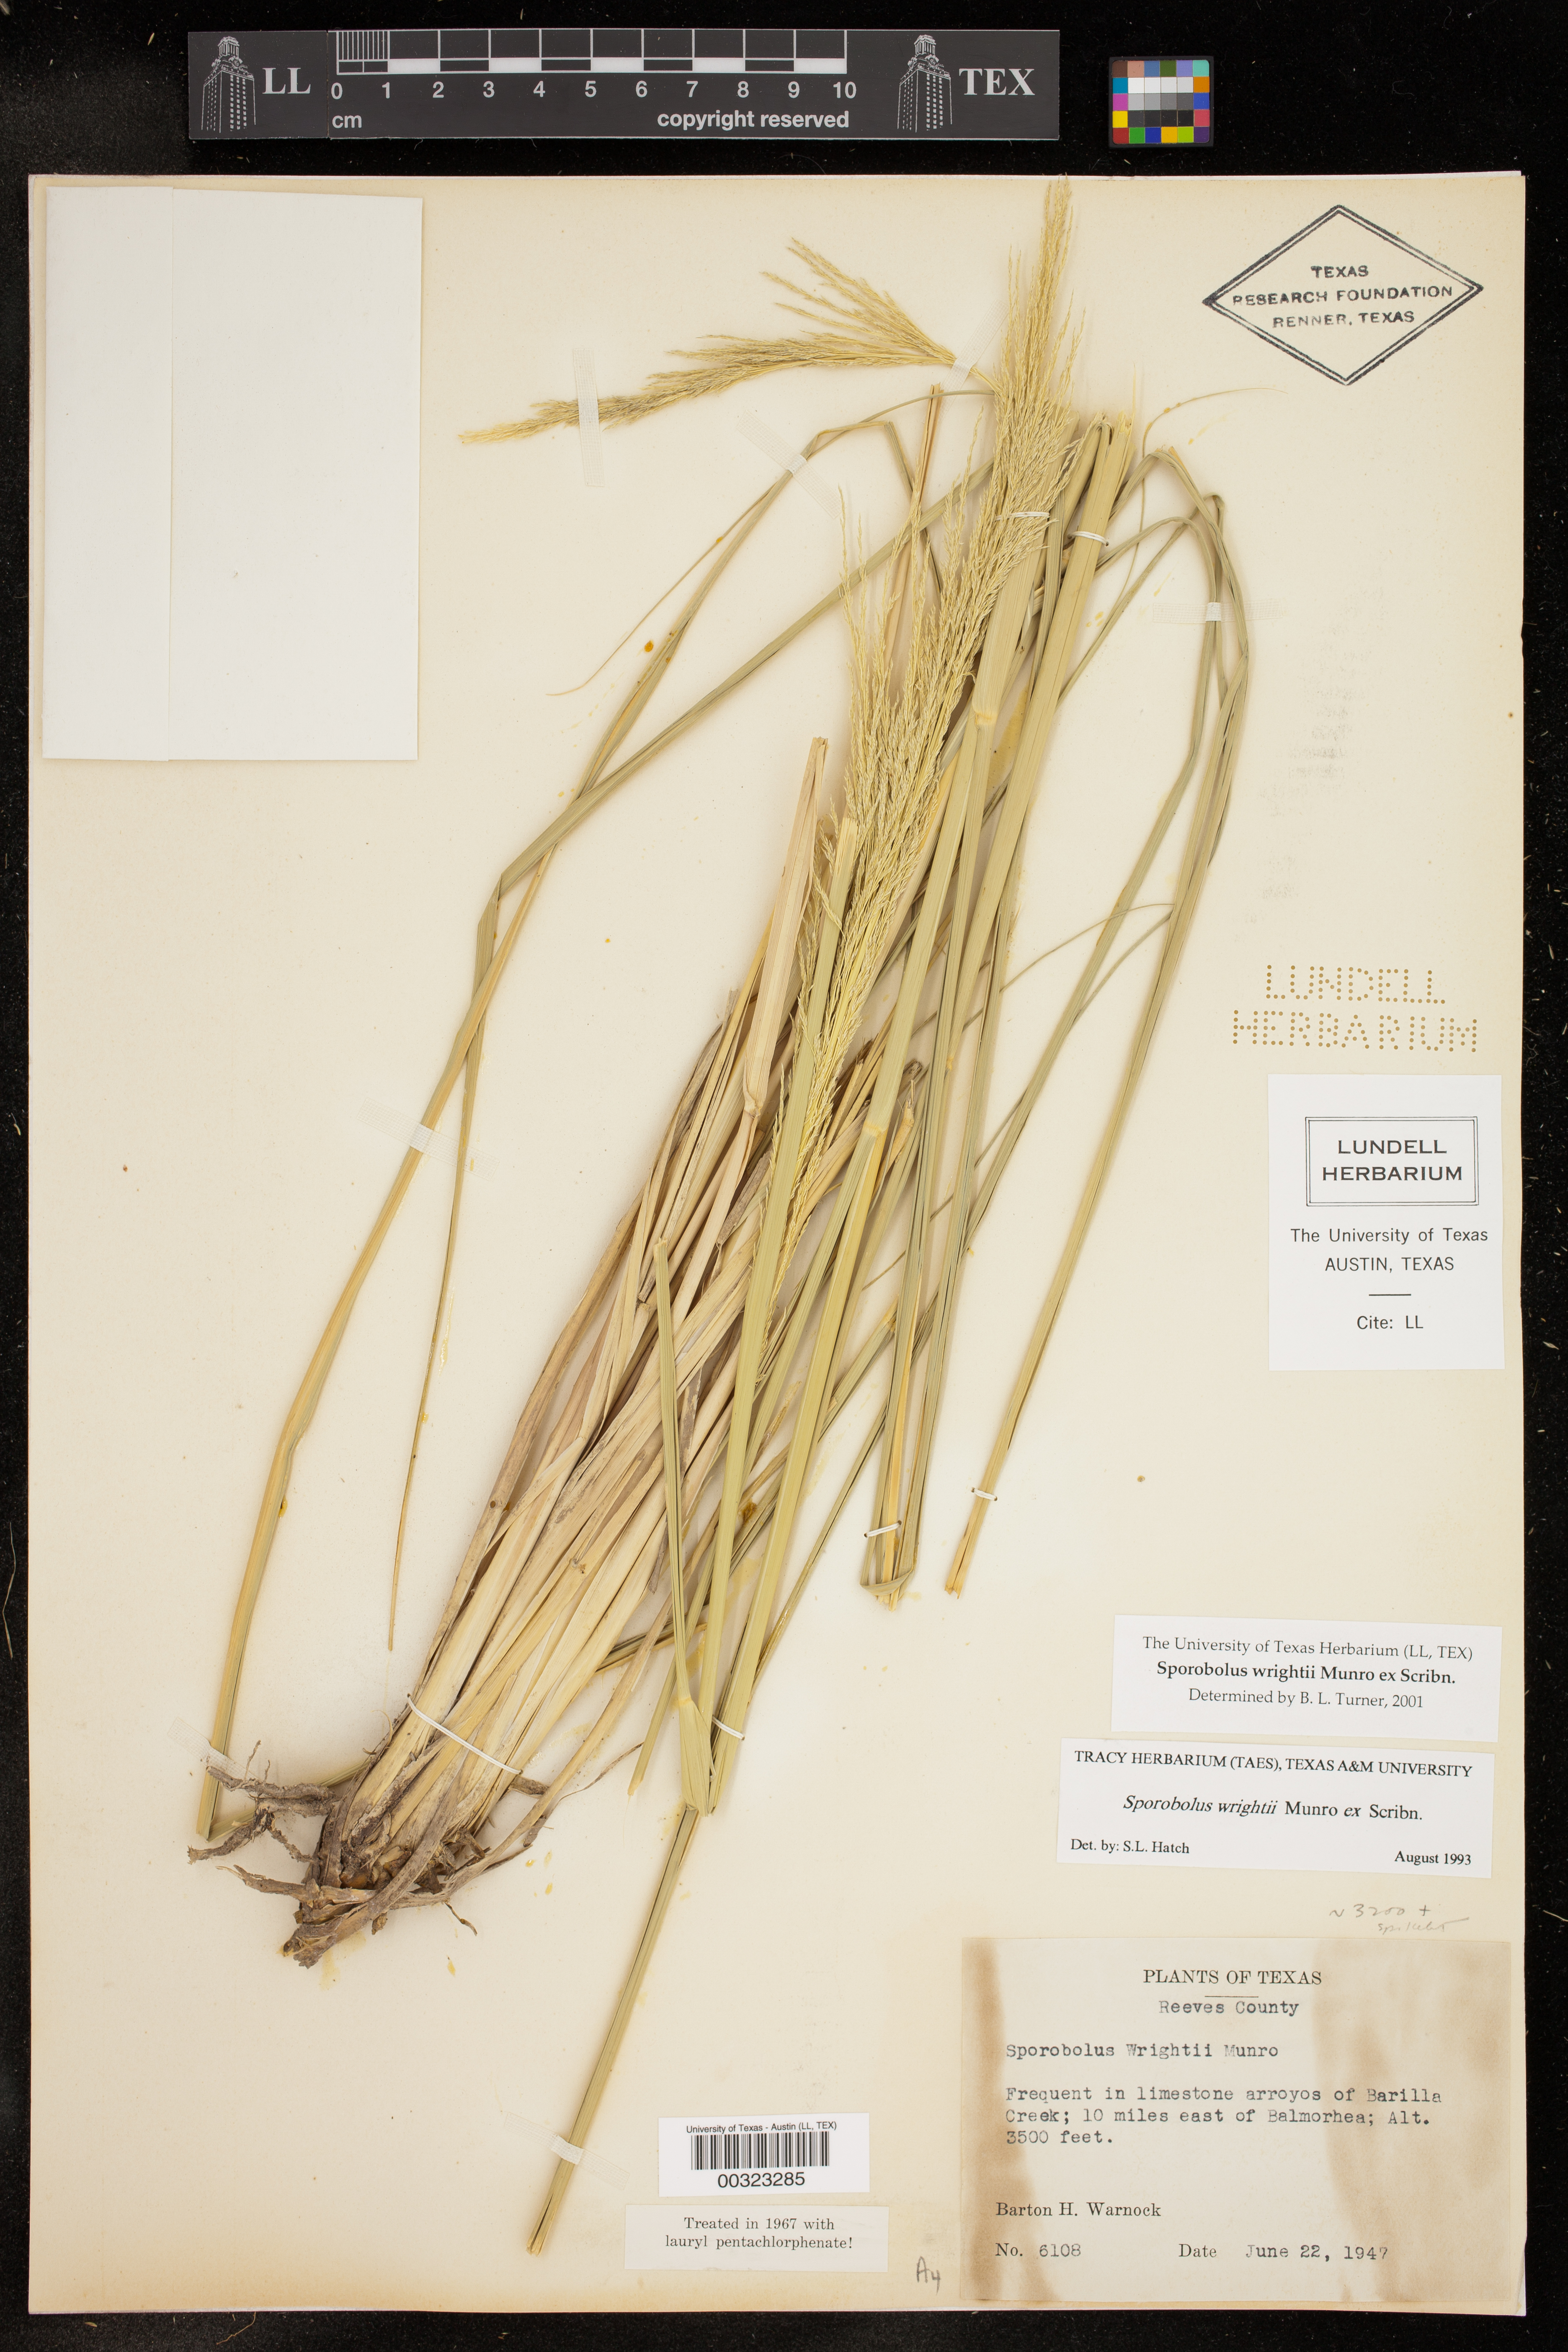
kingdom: Plantae
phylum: Tracheophyta
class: Liliopsida
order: Poales
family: Poaceae
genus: Sporobolus
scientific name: Sporobolus wrightii
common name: Big alkali sacaton
